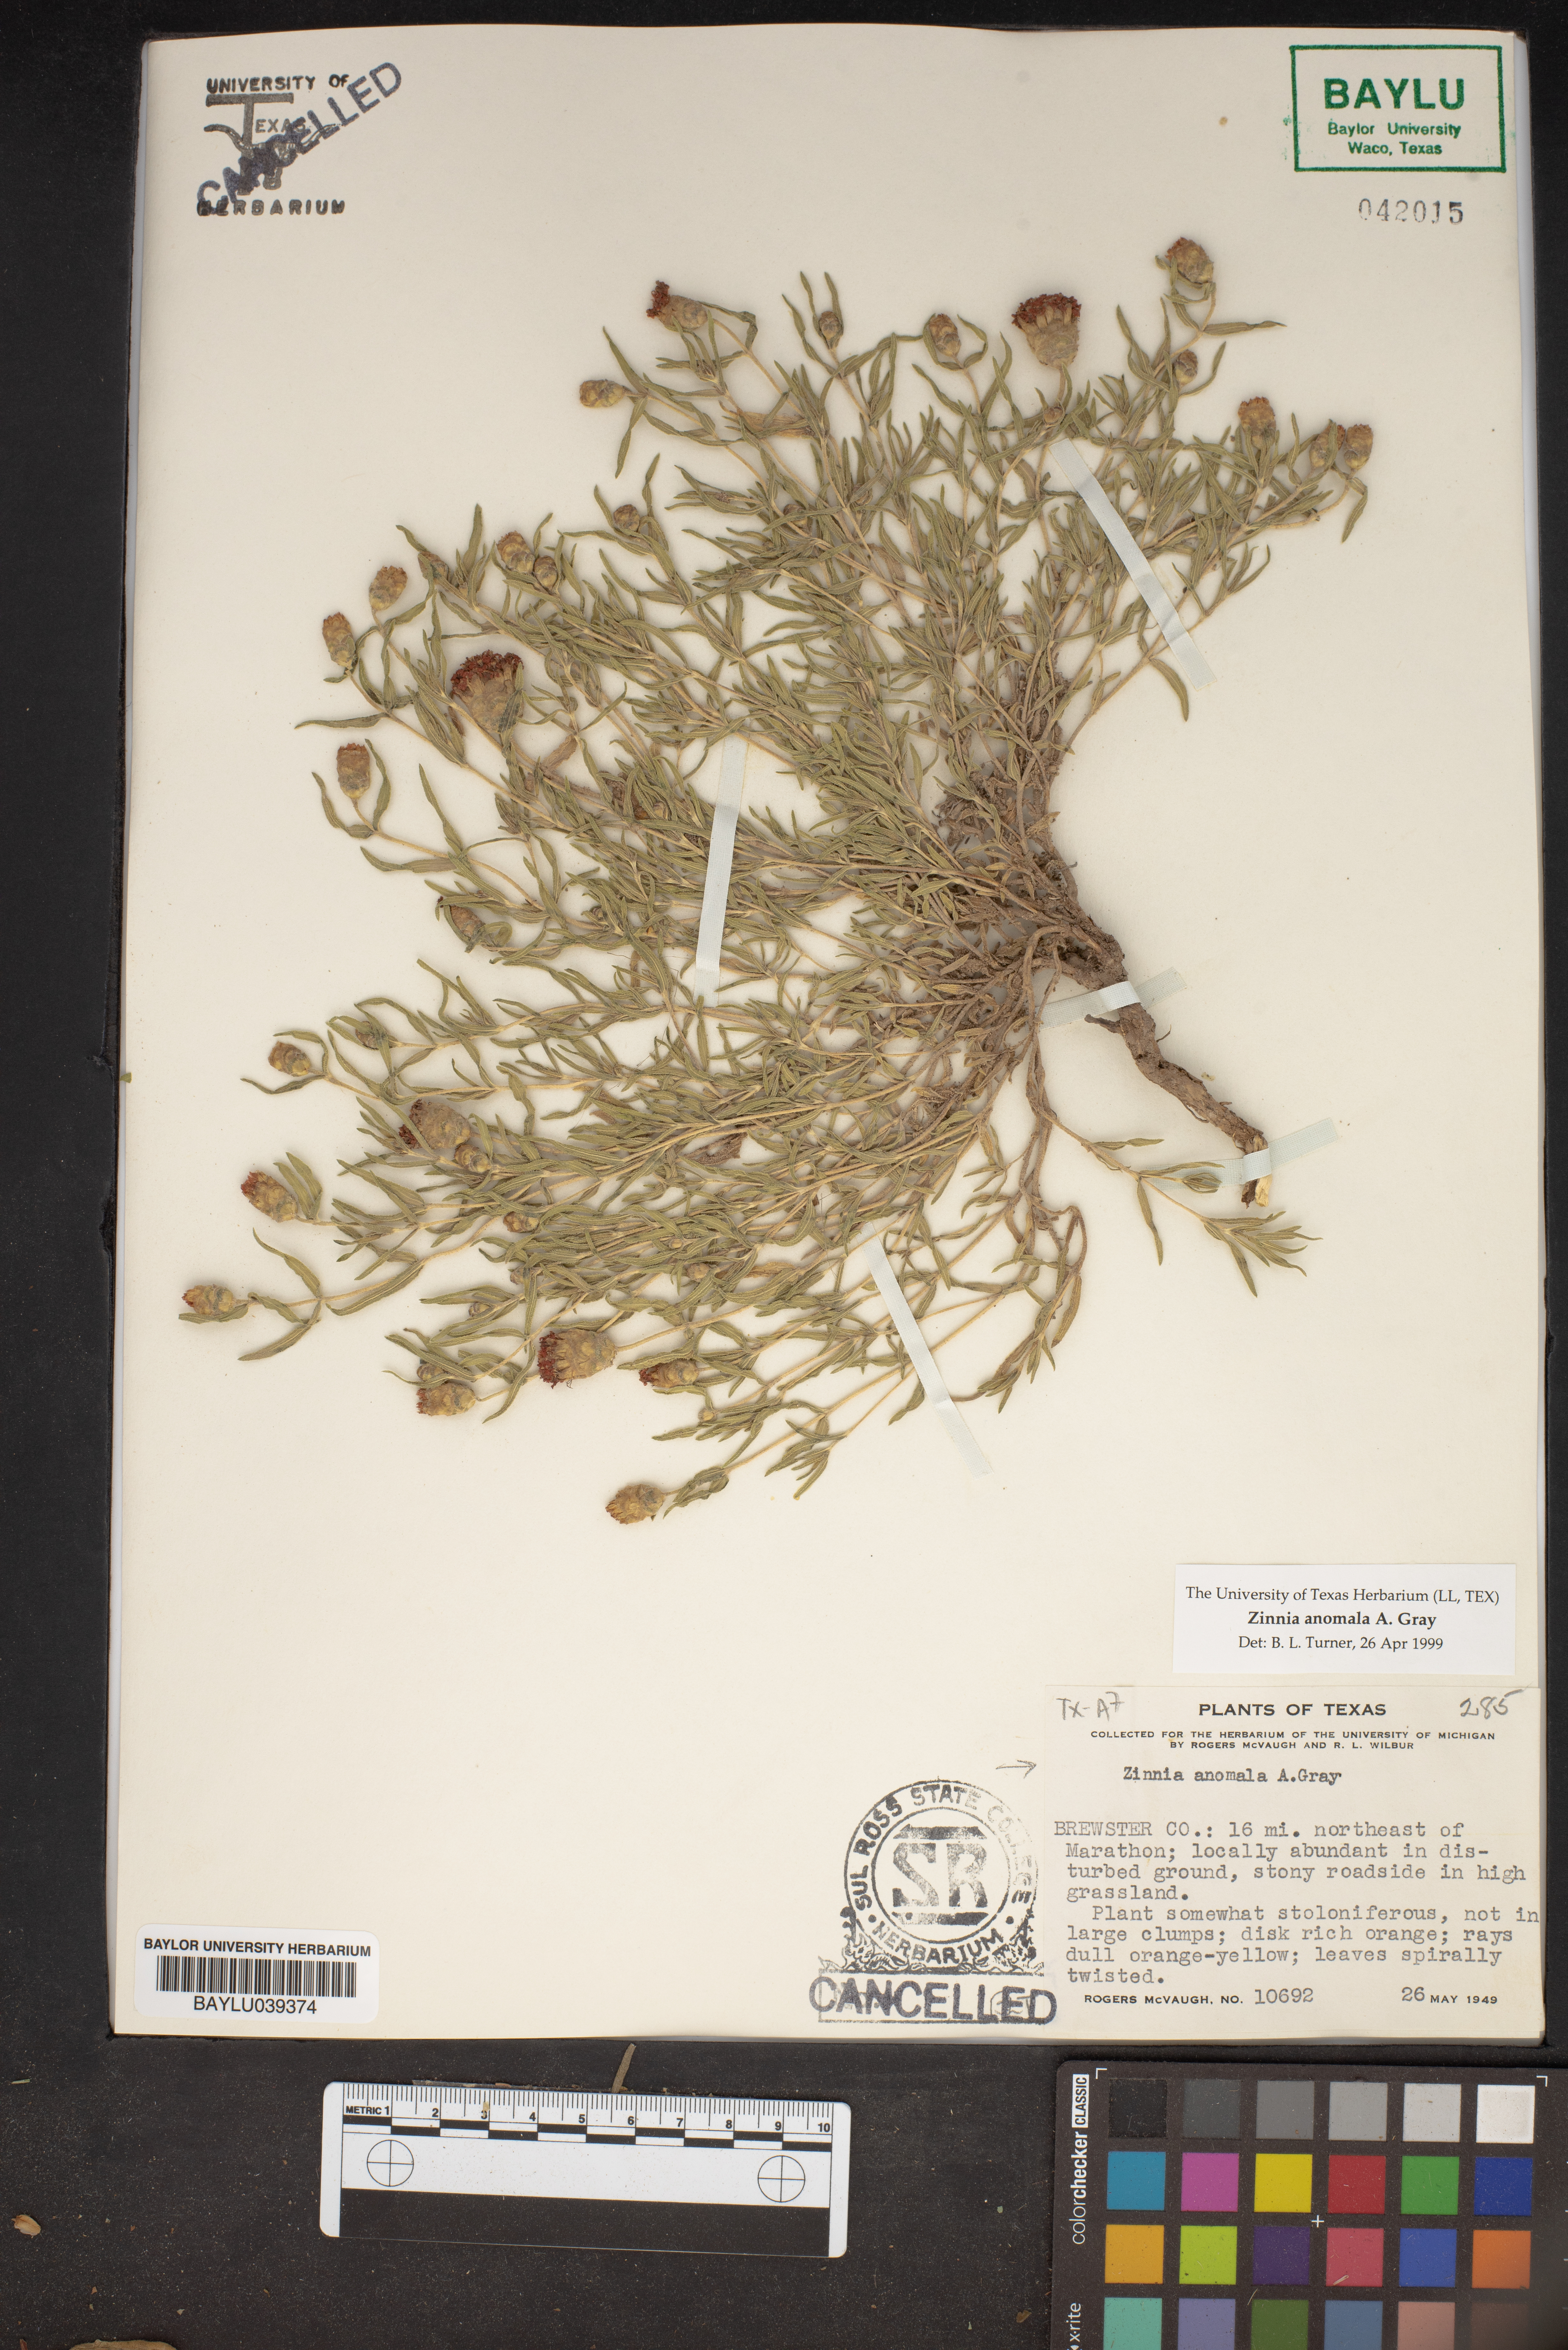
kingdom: Plantae
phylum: Tracheophyta
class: Magnoliopsida
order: Asterales
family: Asteraceae
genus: Zinnia
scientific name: Zinnia anomala
